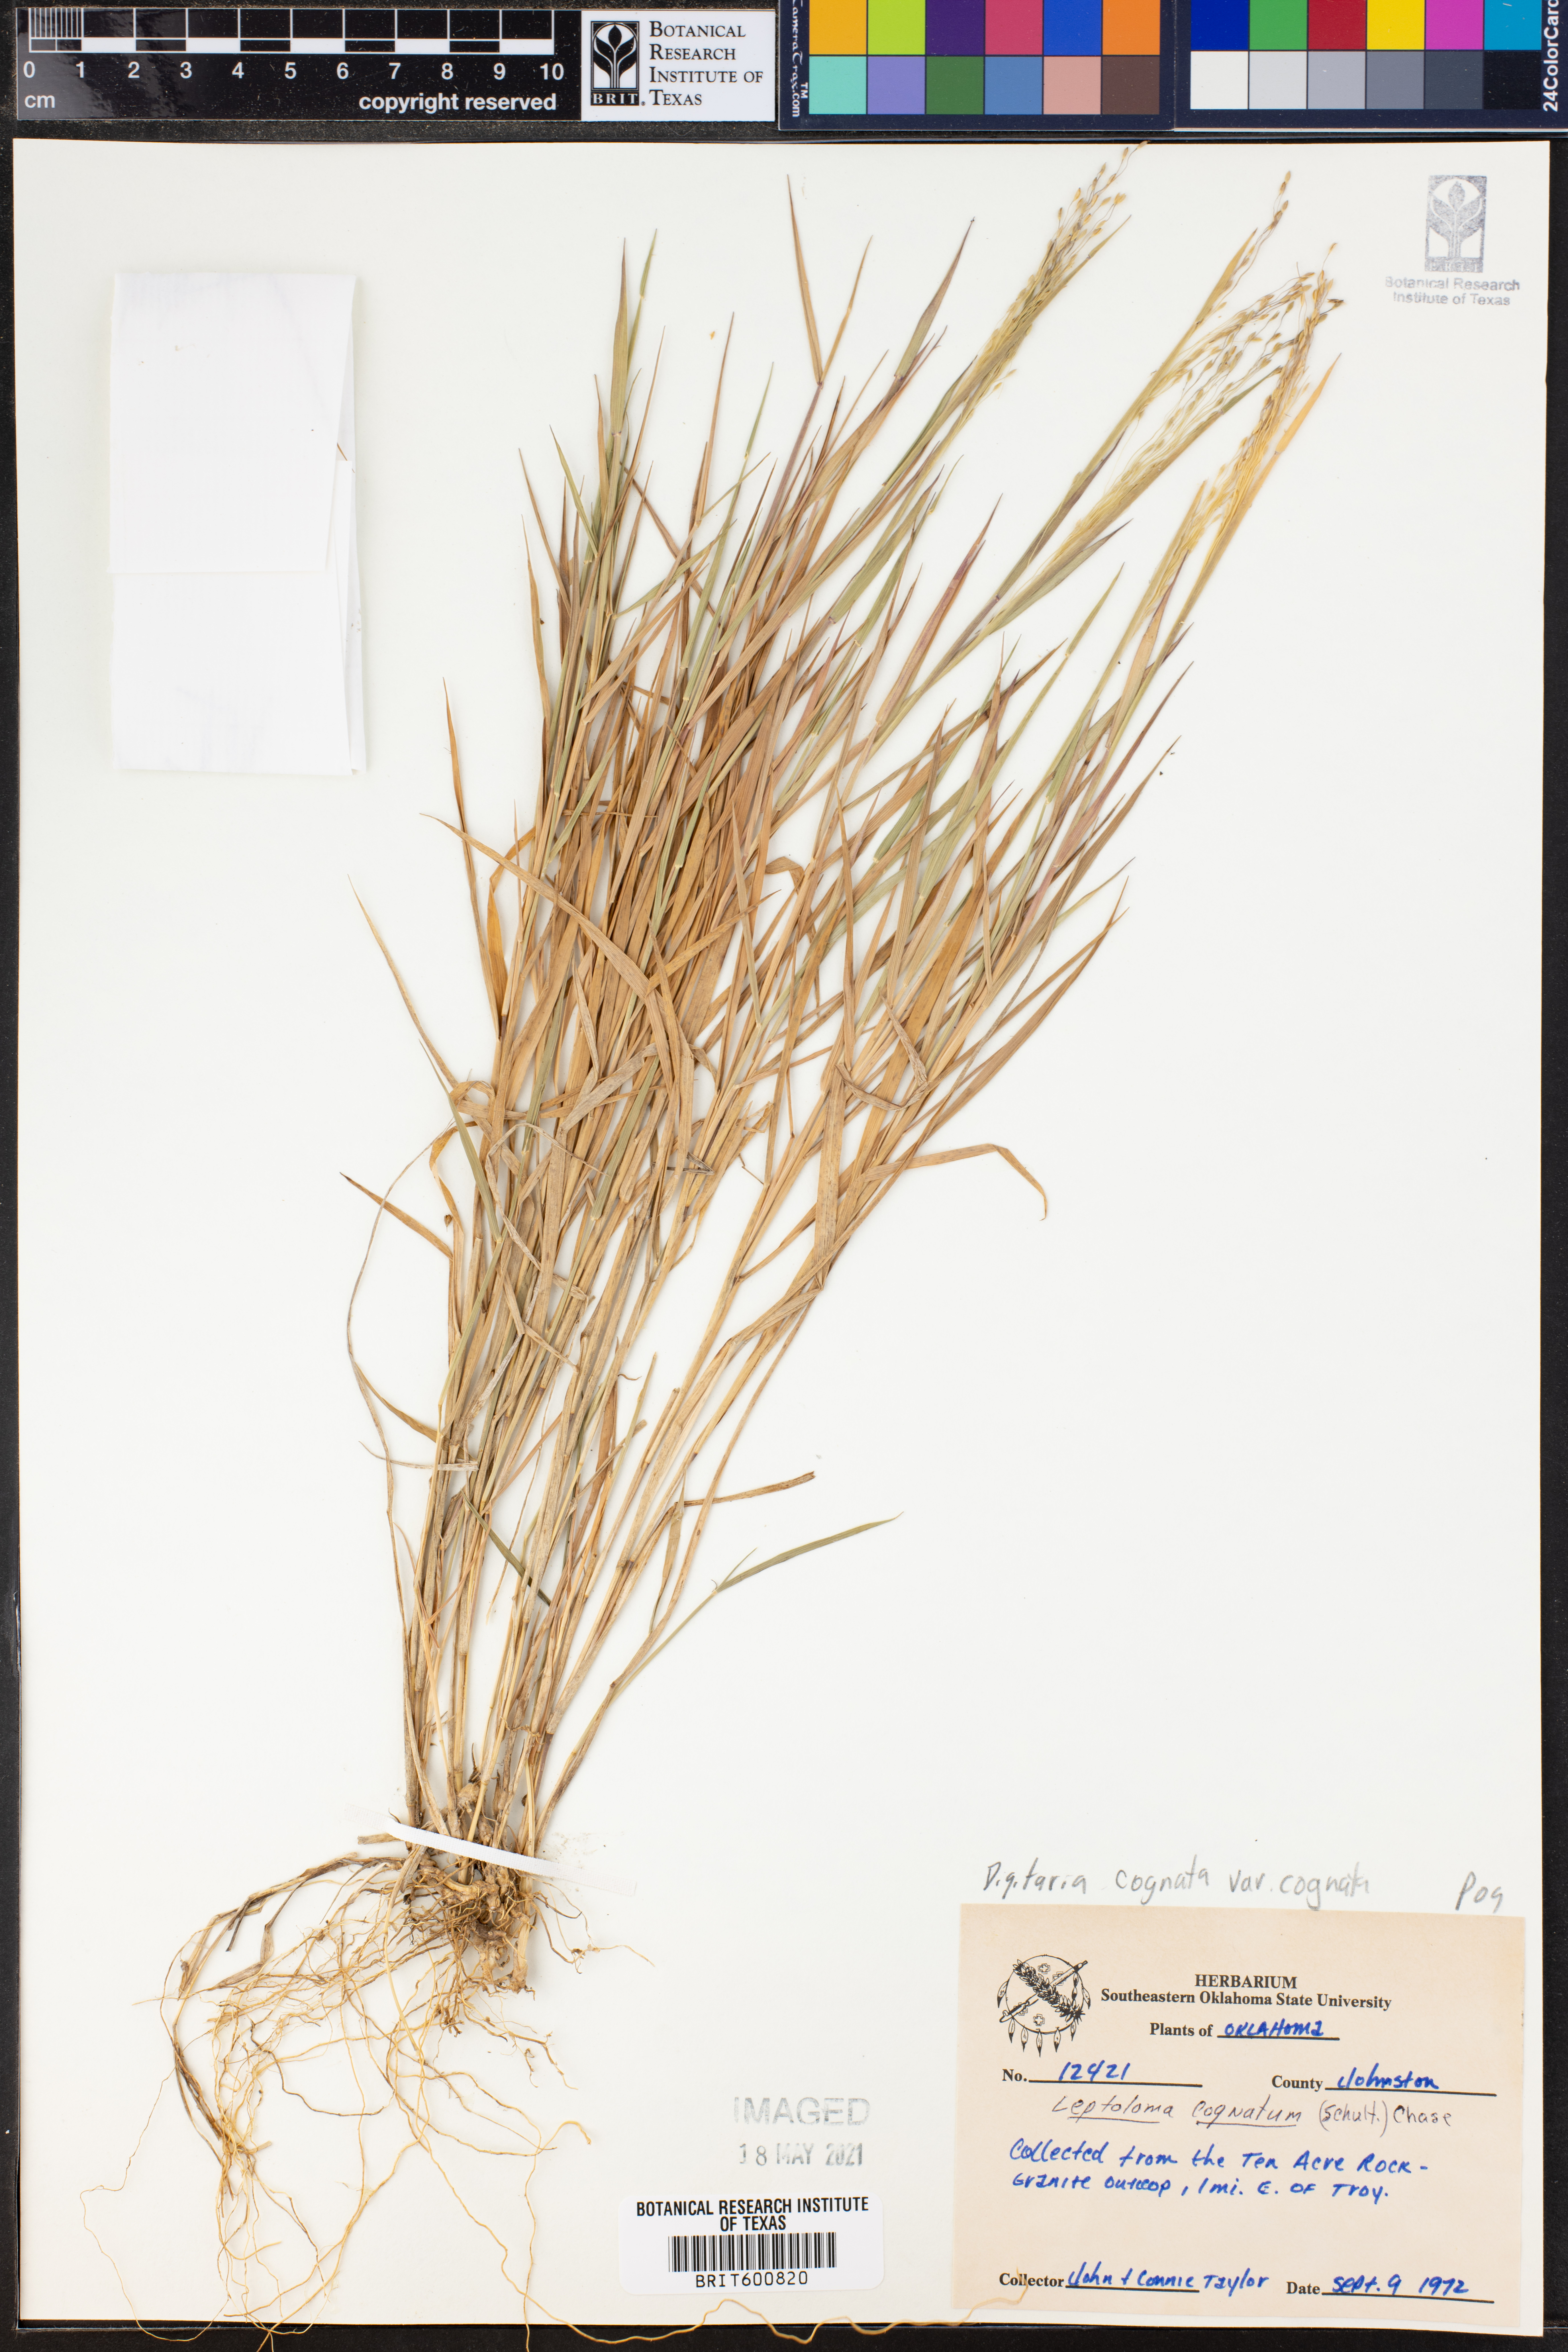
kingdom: Plantae
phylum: Tracheophyta
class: Liliopsida
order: Poales
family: Poaceae
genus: Digitaria
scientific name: Digitaria cognata
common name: Fall witchgrass
